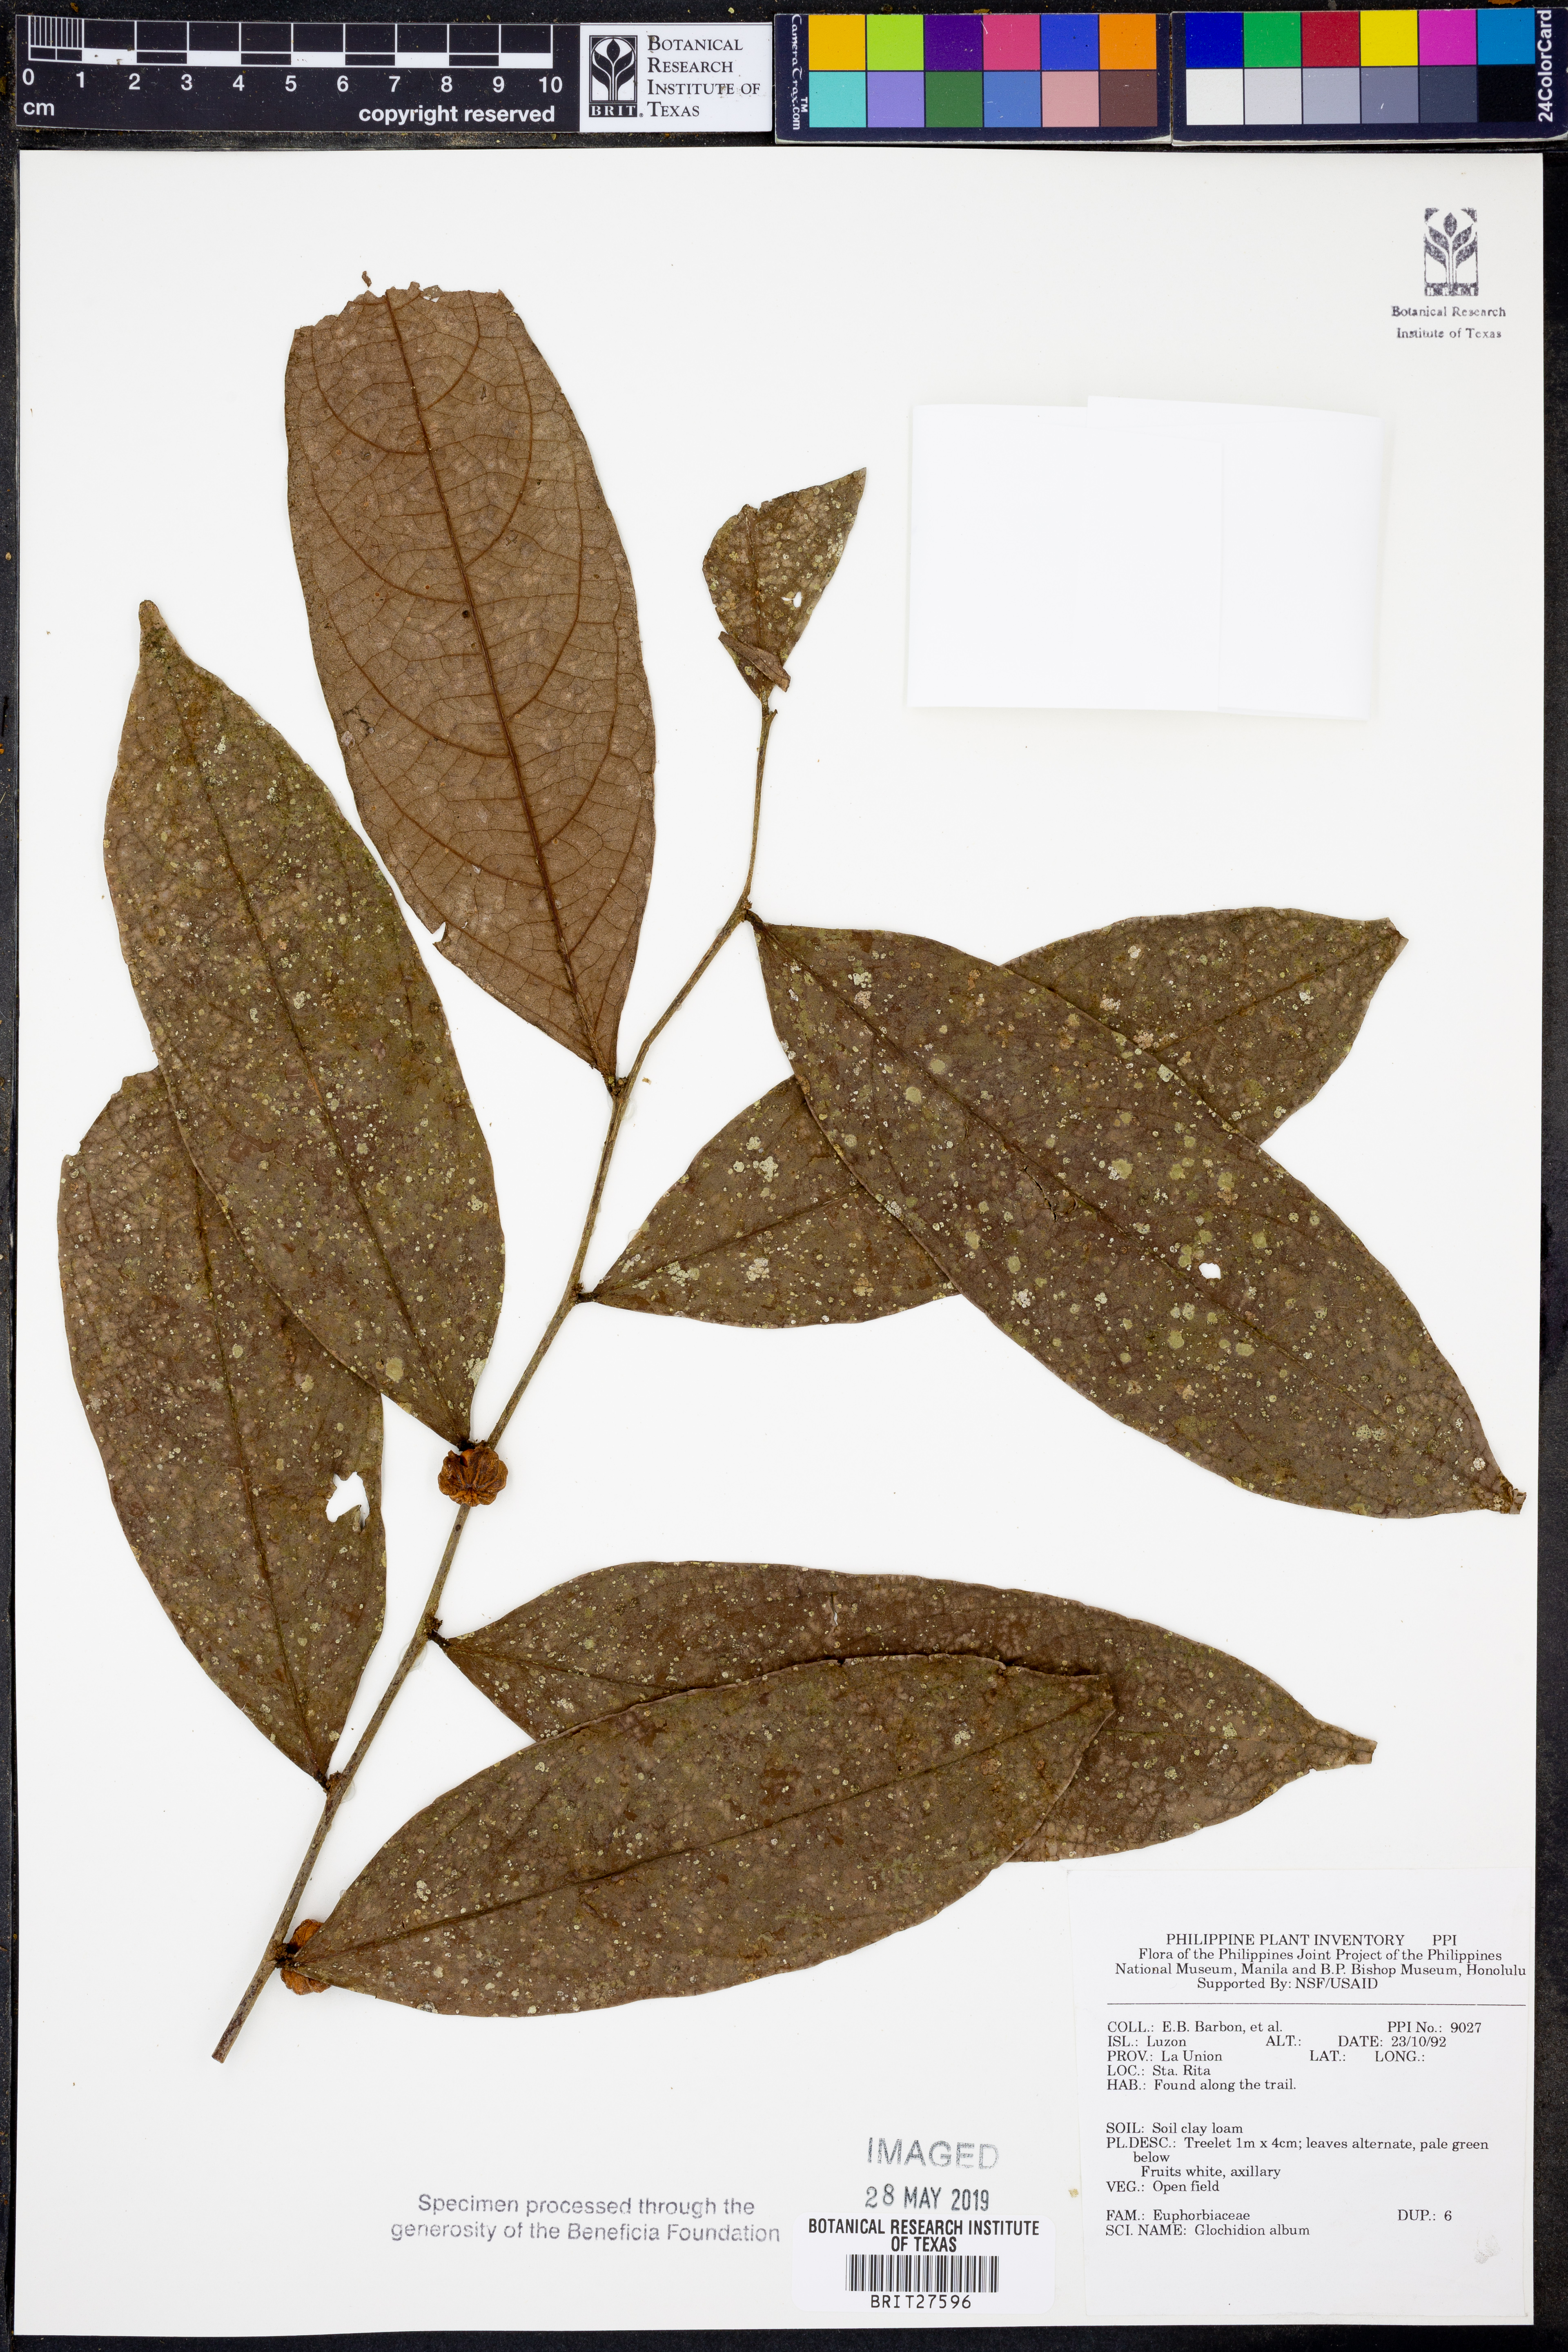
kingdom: Plantae
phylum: Tracheophyta
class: Magnoliopsida
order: Malpighiales
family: Phyllanthaceae
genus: Glochidion
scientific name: Glochidion album
